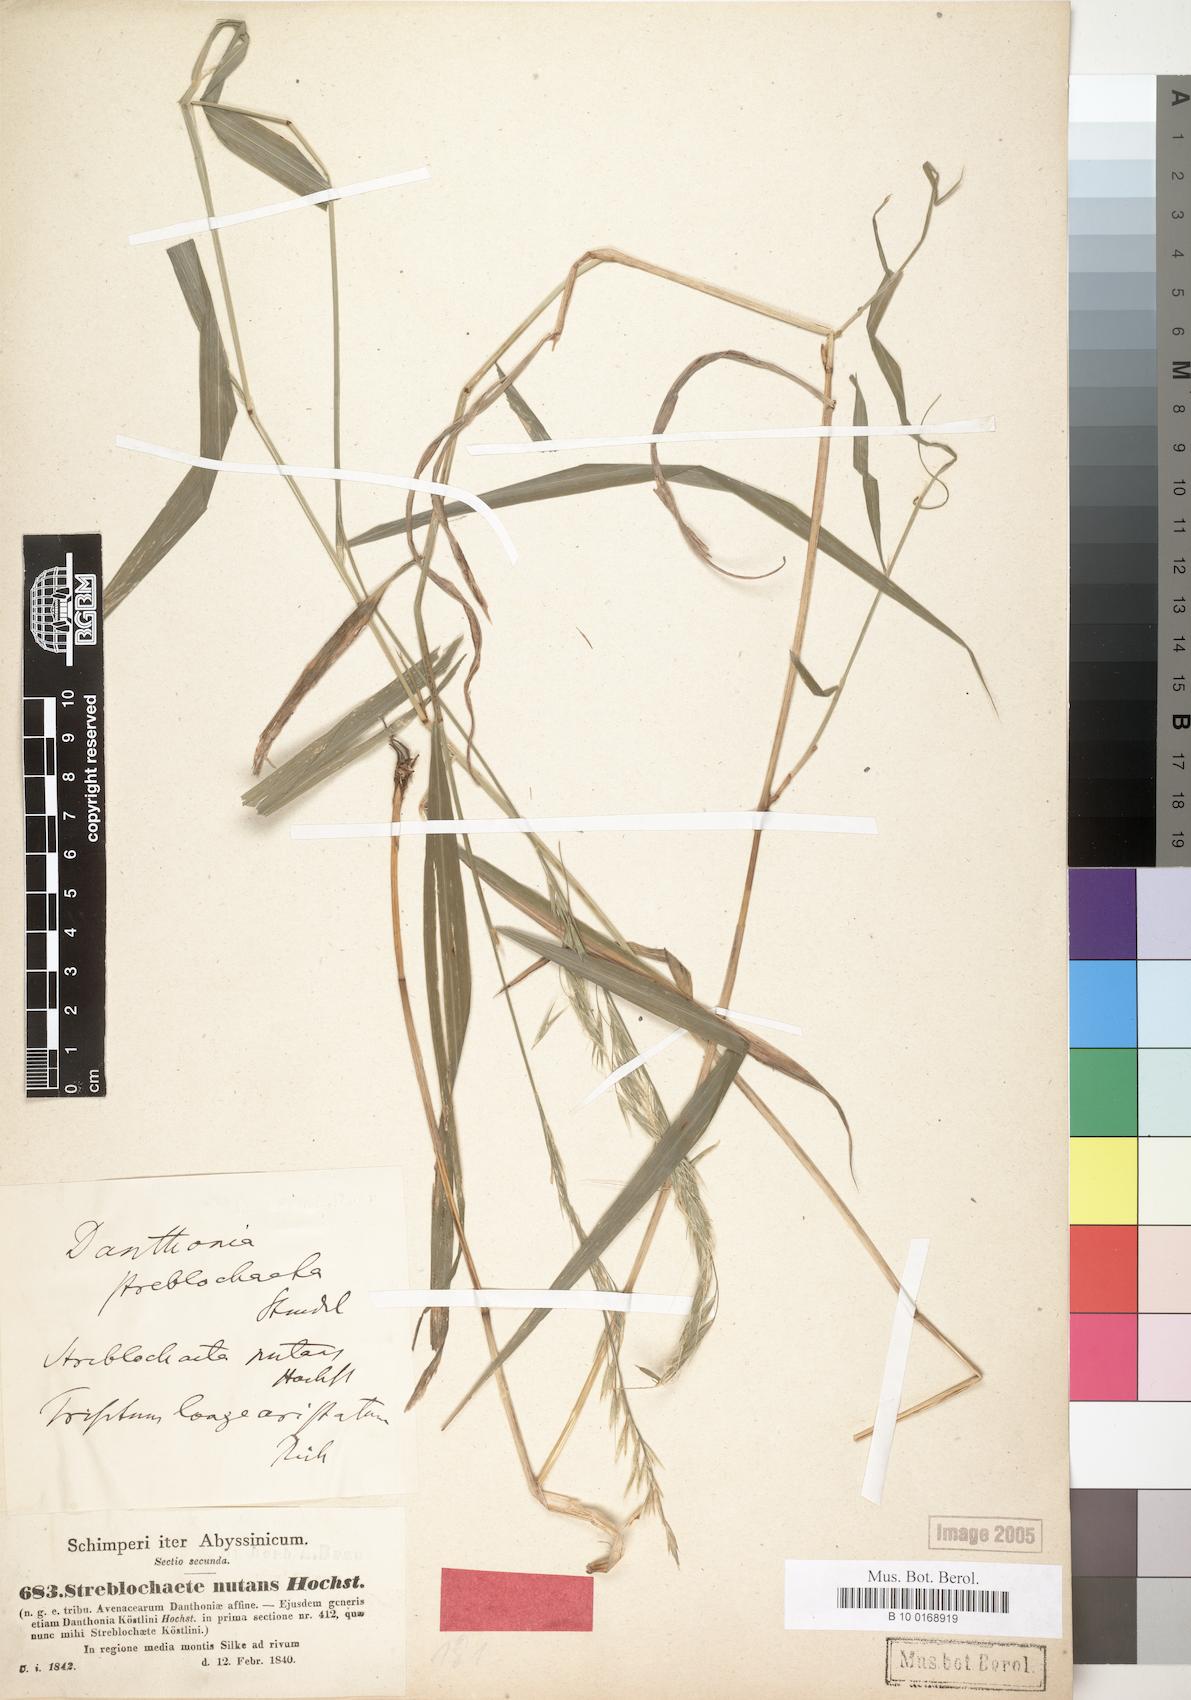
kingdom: Plantae
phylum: Tracheophyta
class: Liliopsida
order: Poales
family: Poaceae
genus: Streblochaete
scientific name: Streblochaete nutans
